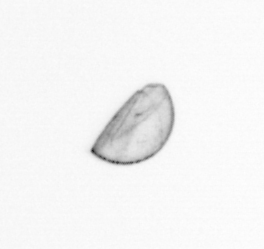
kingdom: Chromista
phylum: Ochrophyta
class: Bacillariophyceae
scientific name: Bacillariophyceae
